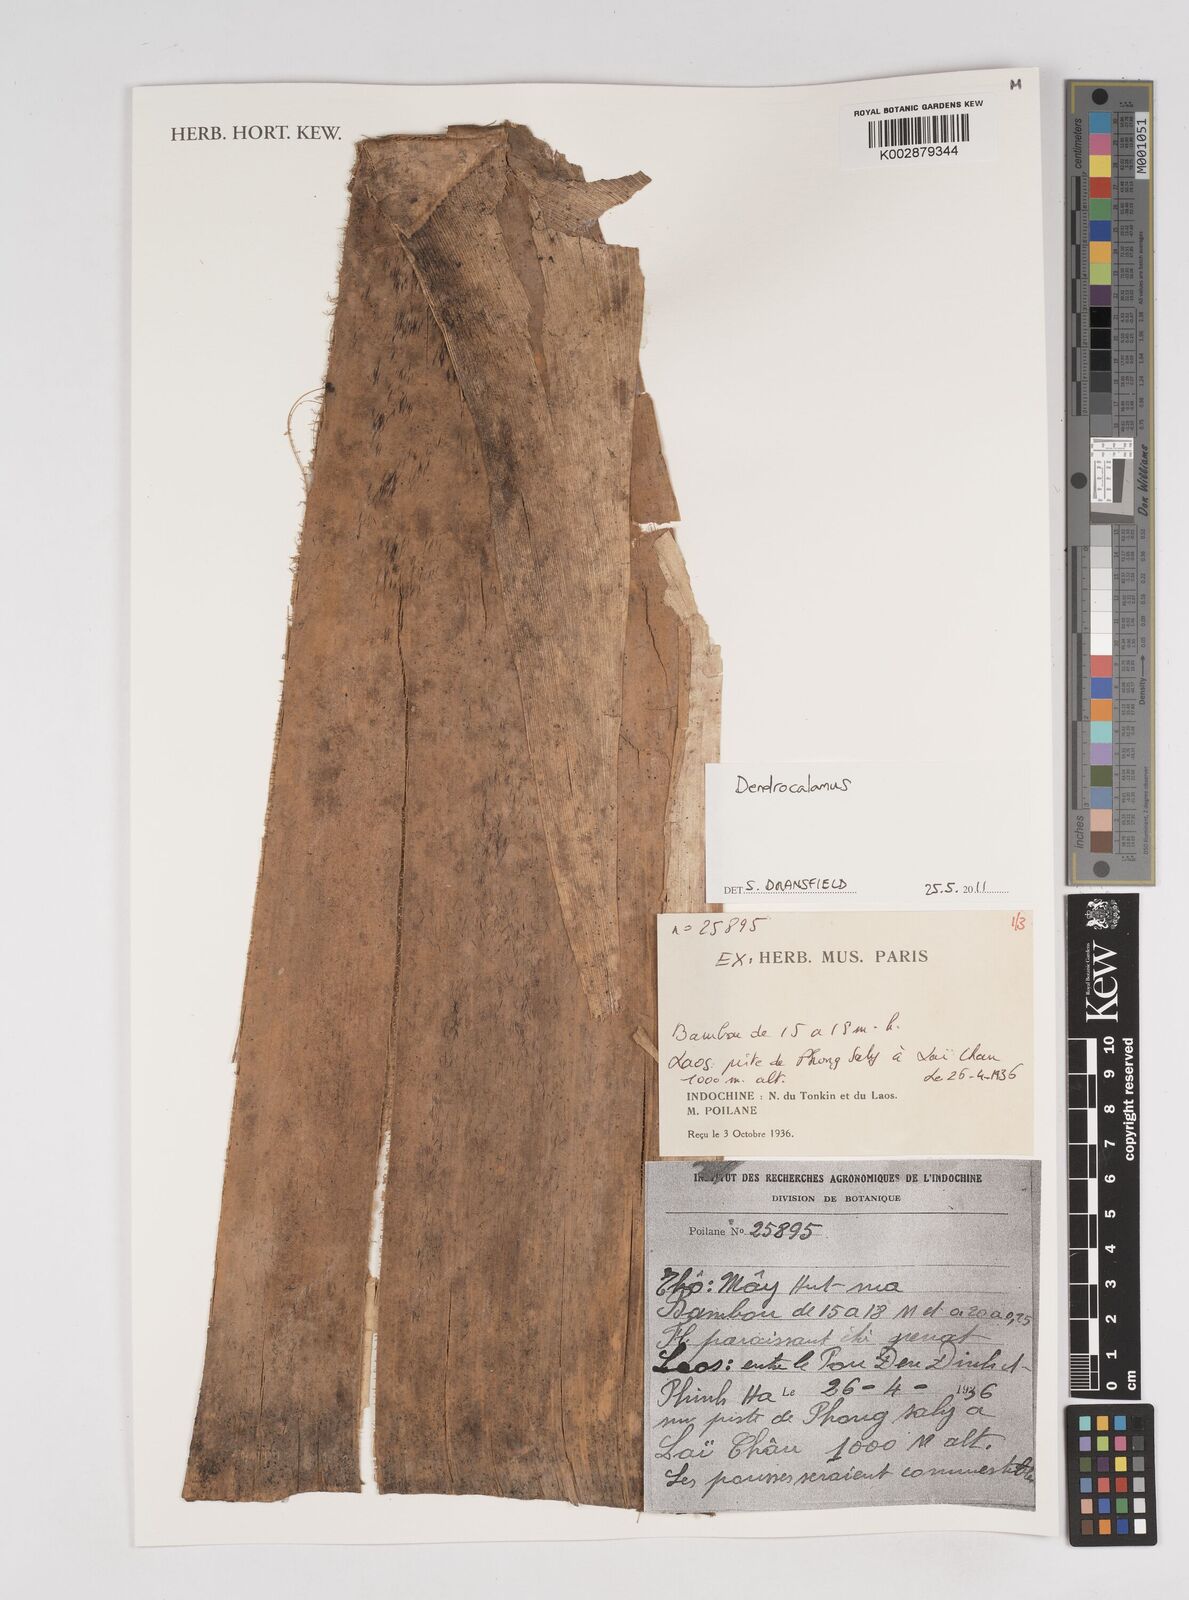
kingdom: Plantae
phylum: Tracheophyta
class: Liliopsida
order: Poales
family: Poaceae
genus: Dendrocalamus
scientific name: Dendrocalamus
